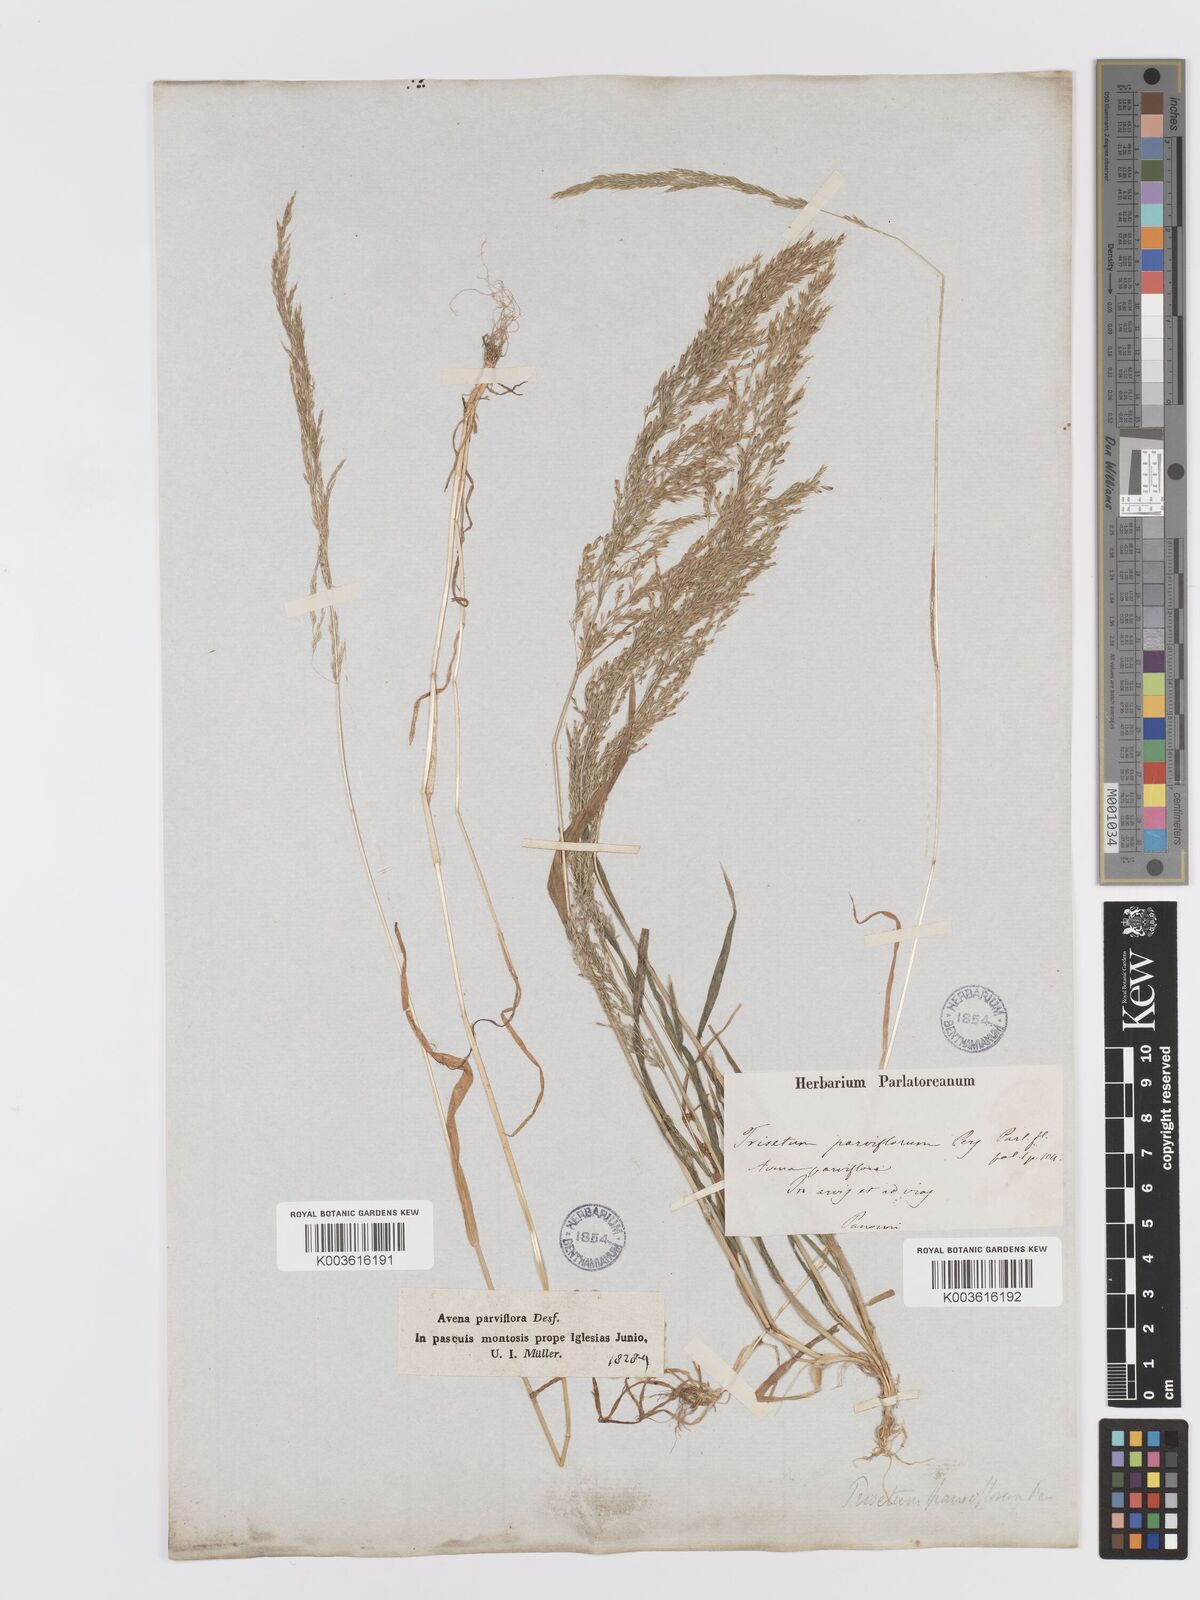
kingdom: Plantae
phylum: Tracheophyta
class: Liliopsida
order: Poales
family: Poaceae
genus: Trisetaria
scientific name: Trisetaria parviflora
